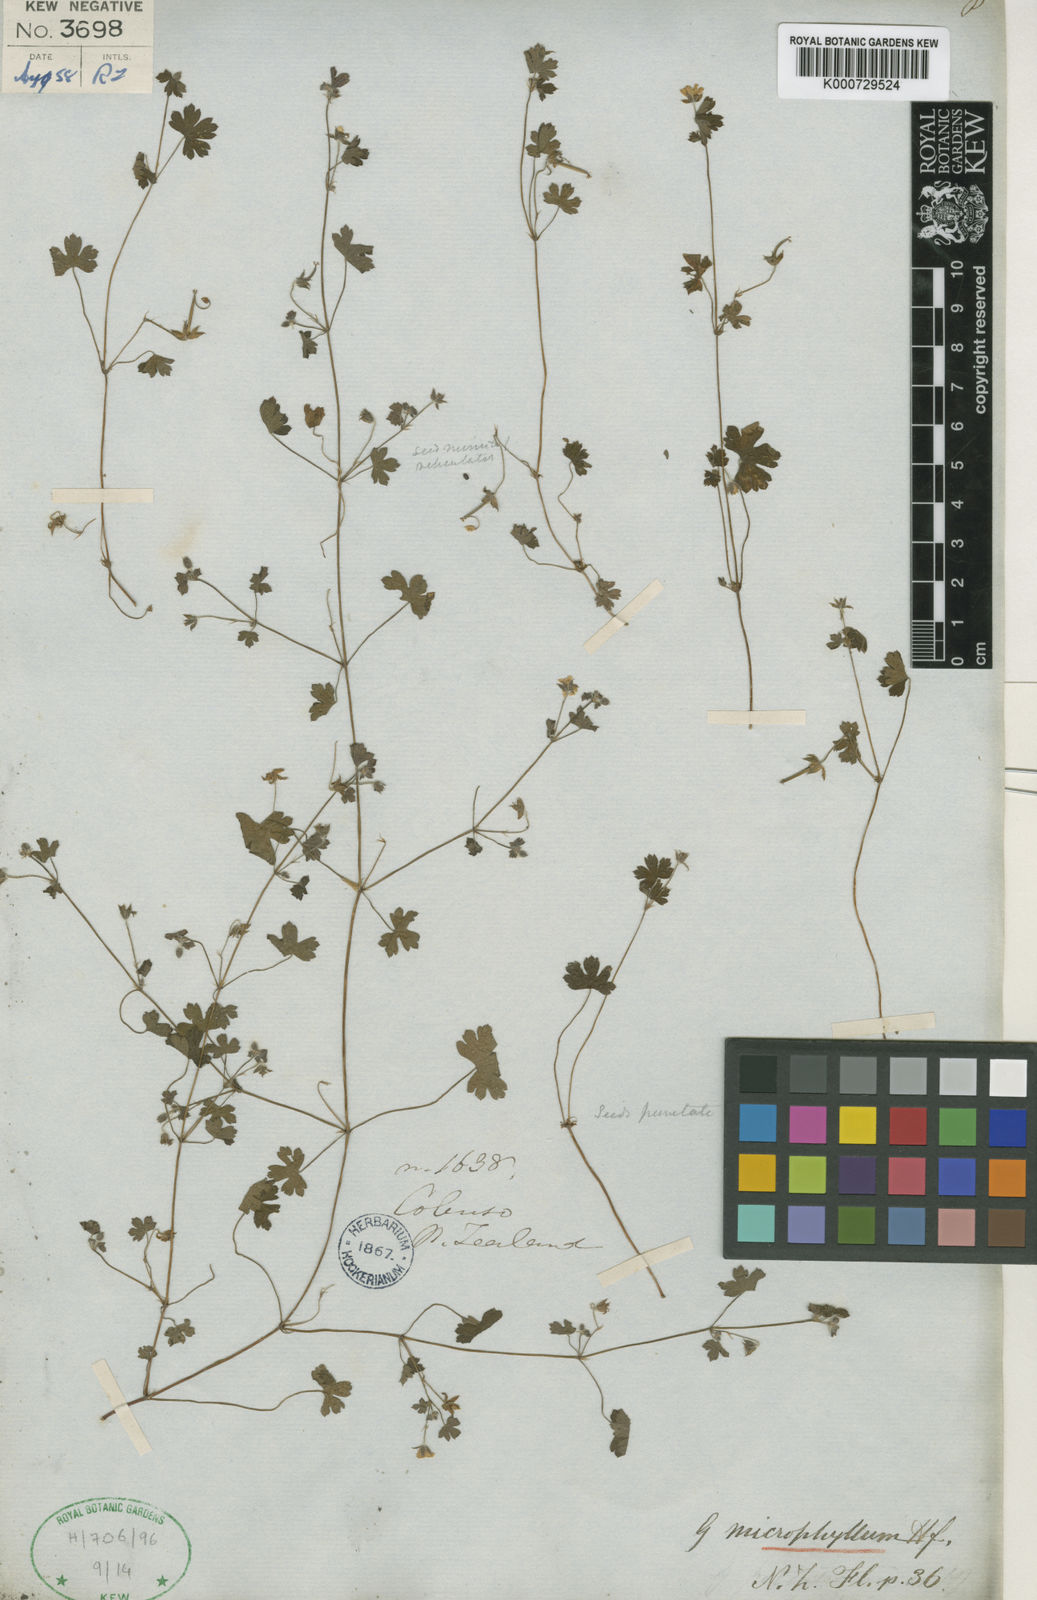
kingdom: Plantae
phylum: Tracheophyta
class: Magnoliopsida
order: Geraniales
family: Geraniaceae
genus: Geranium
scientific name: Geranium
